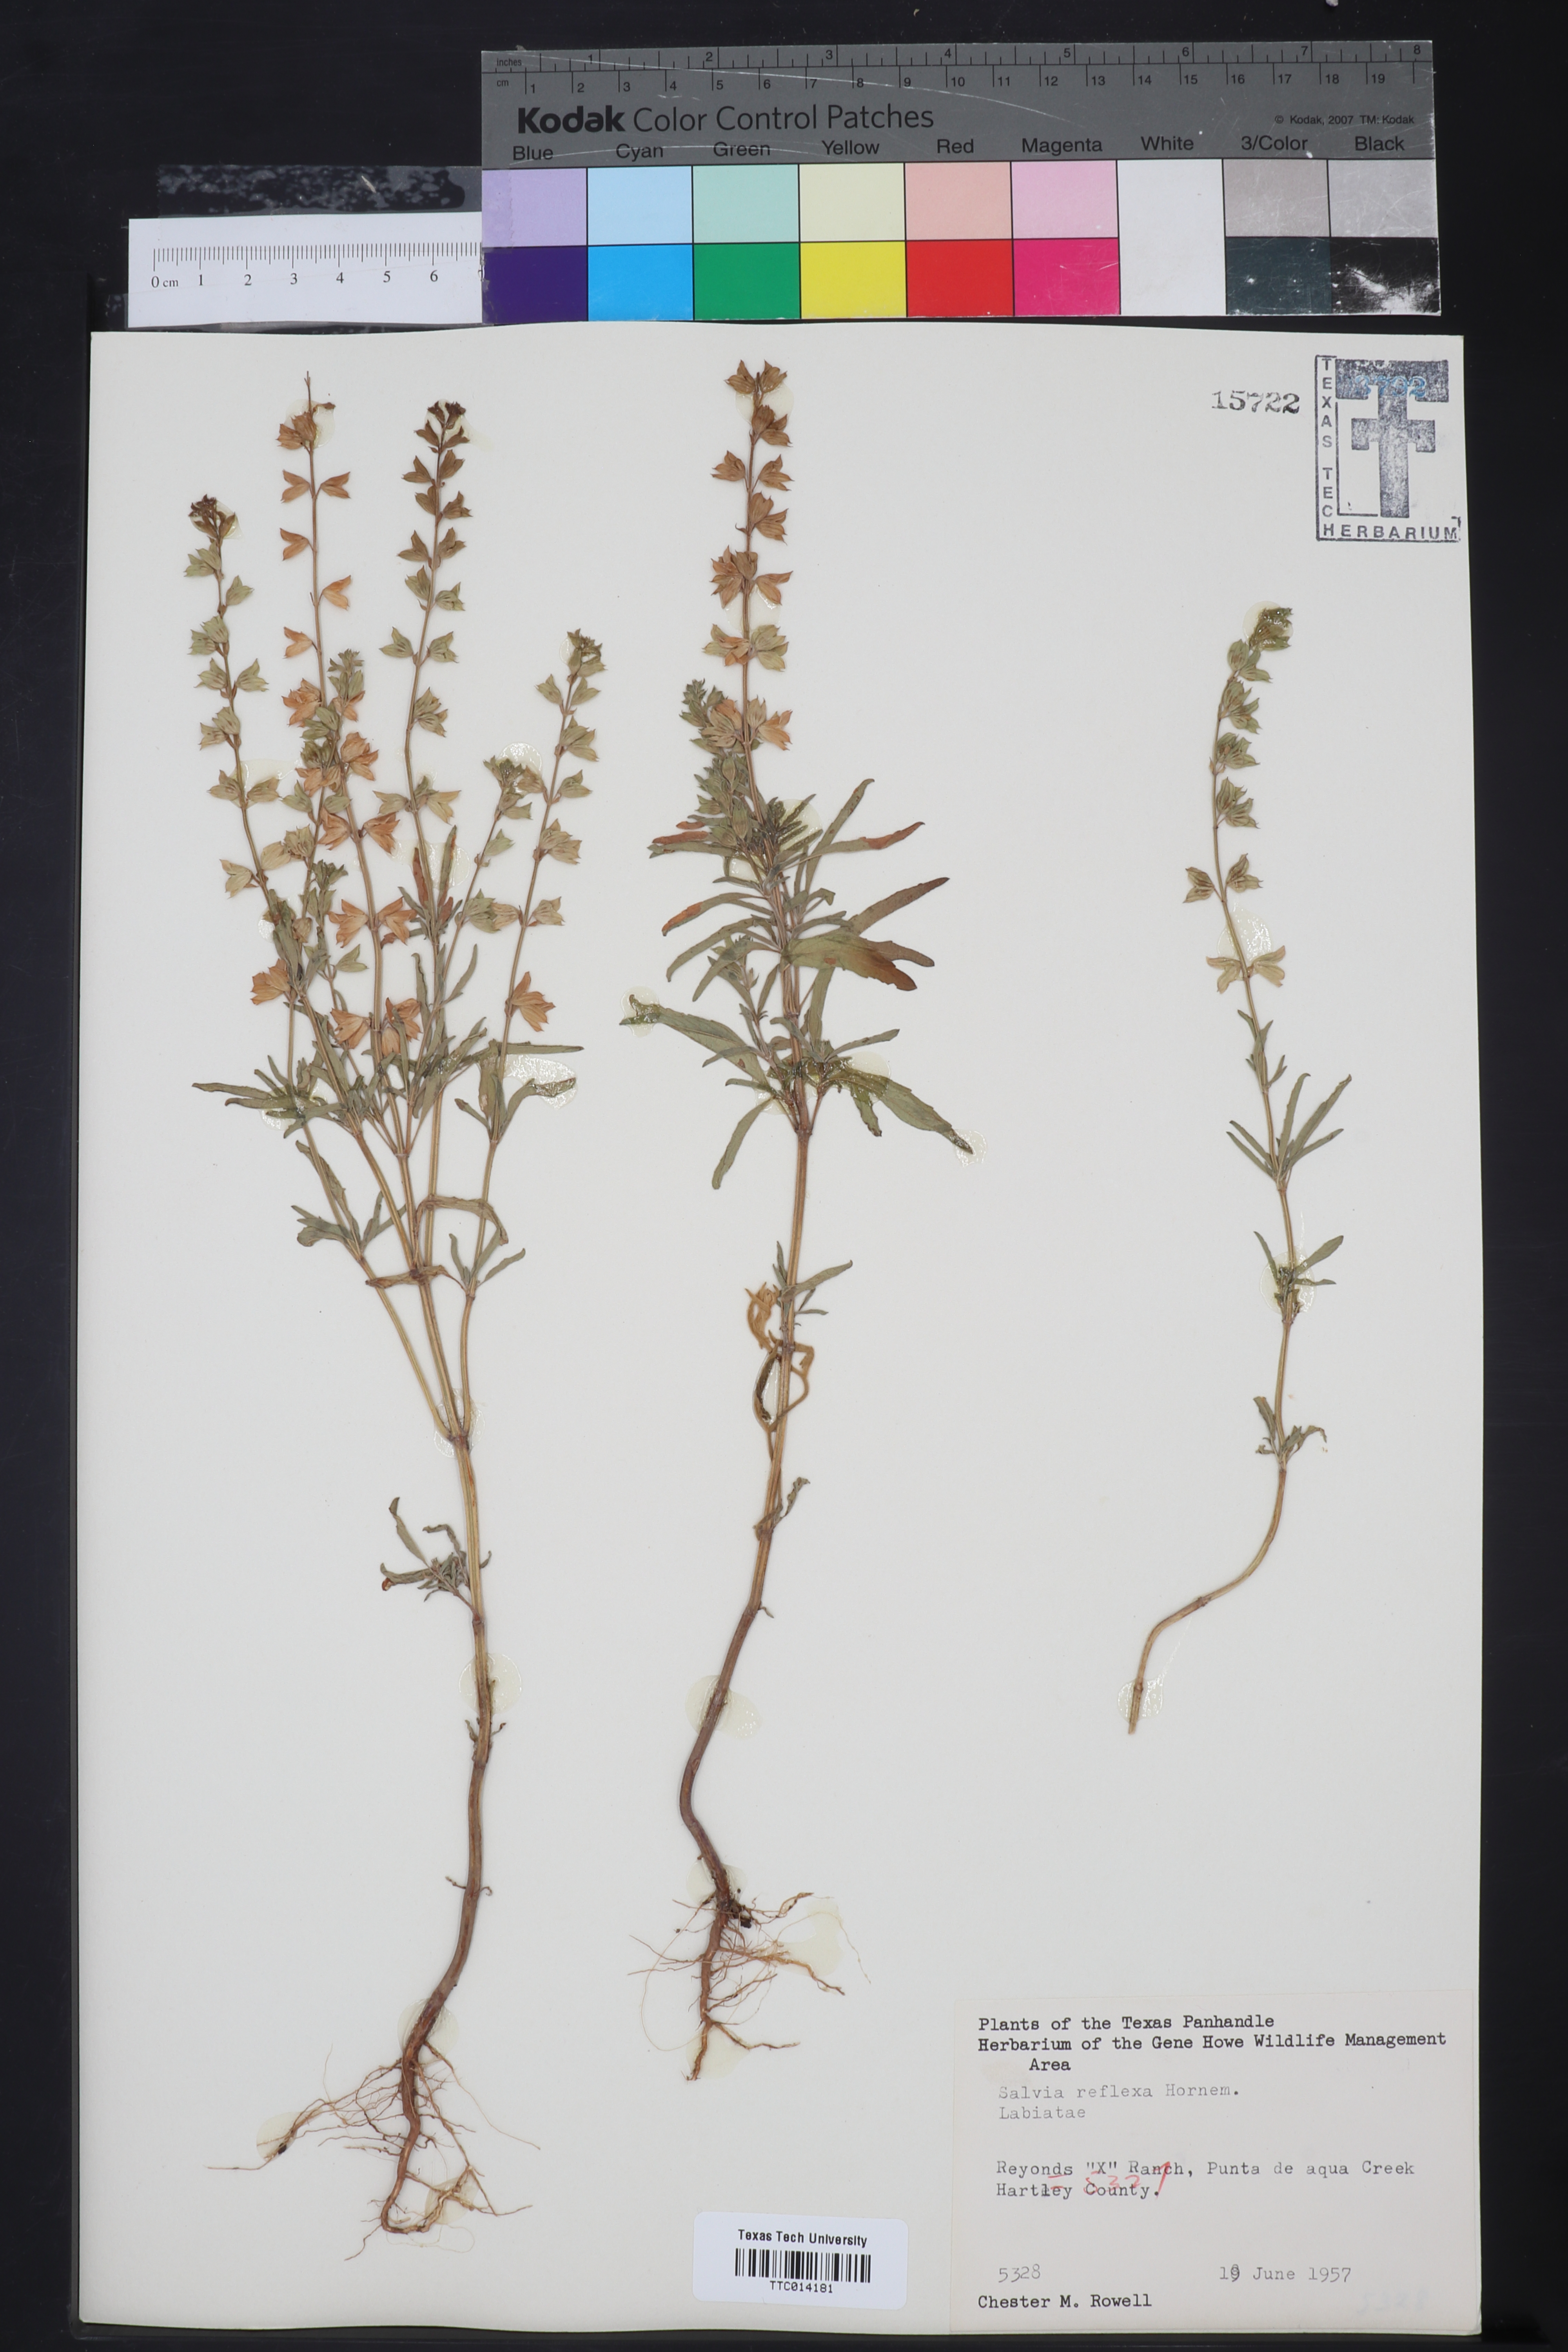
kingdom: Plantae
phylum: Tracheophyta
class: Magnoliopsida
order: Lamiales
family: Lamiaceae
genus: Salvia
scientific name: Salvia reflexa
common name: Mintweed
